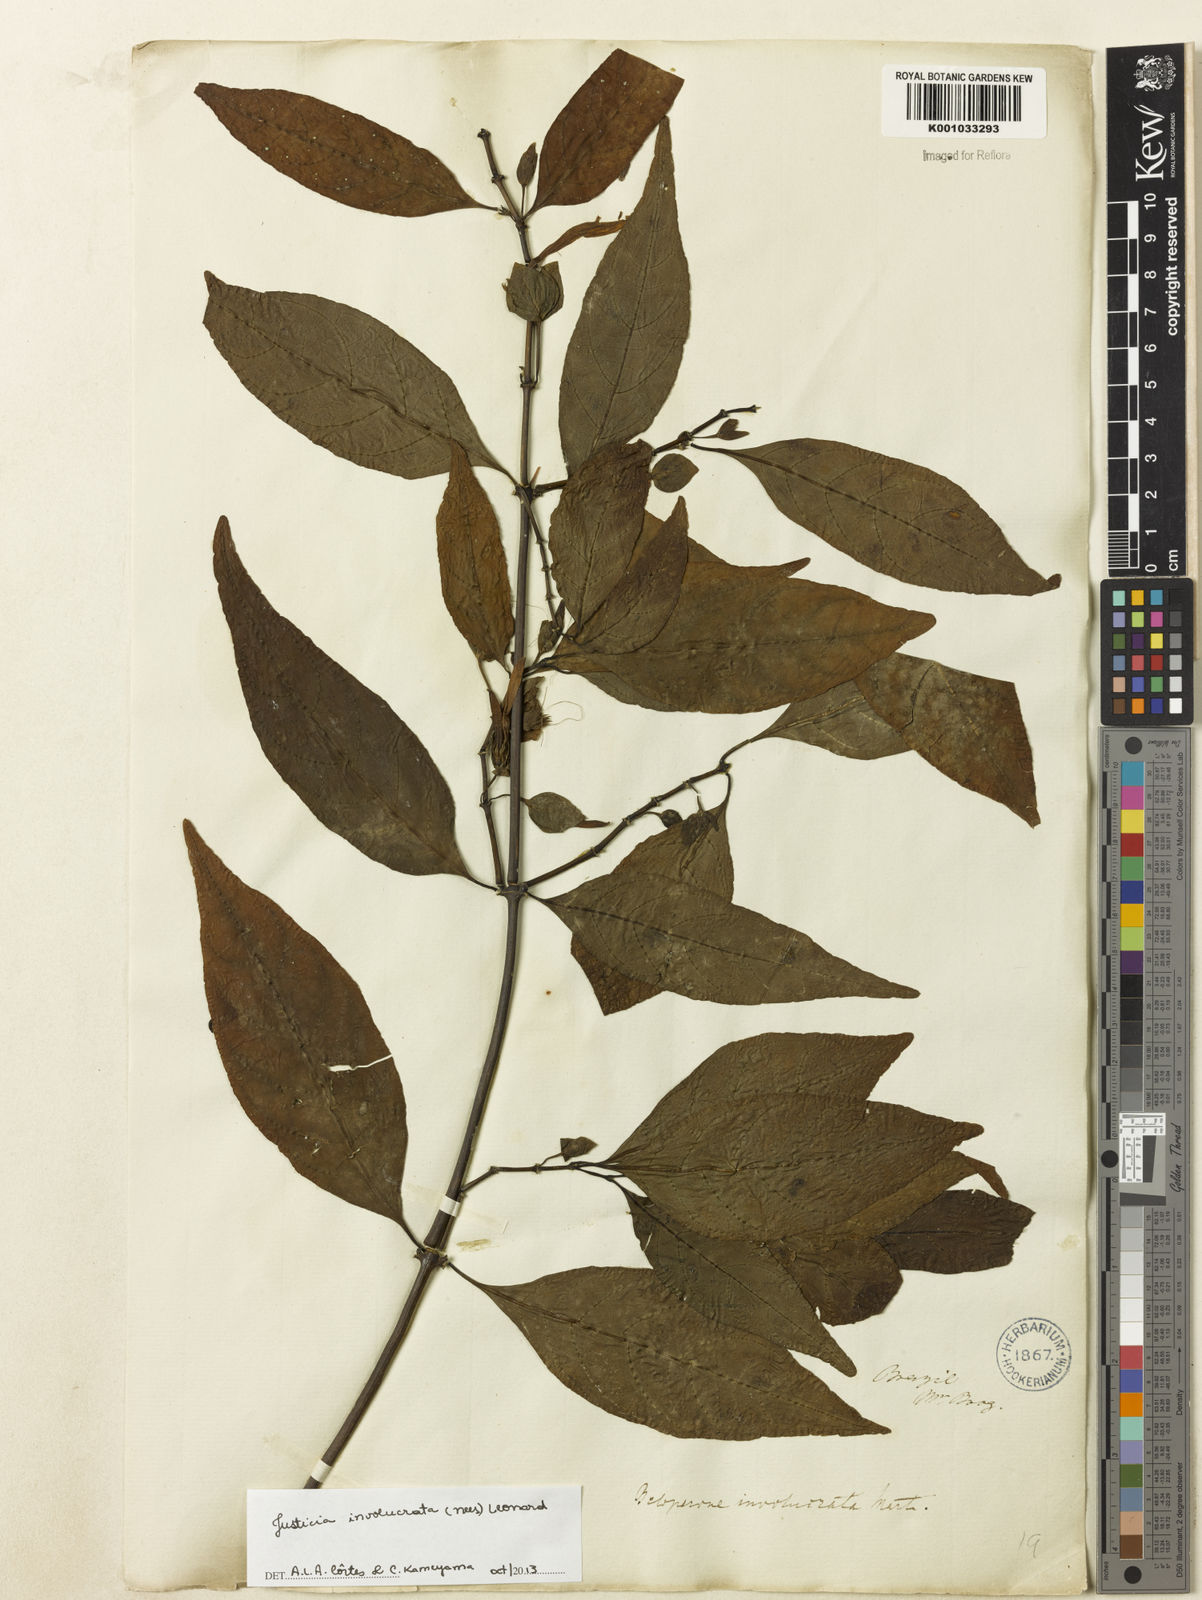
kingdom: Plantae
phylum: Tracheophyta
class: Magnoliopsida
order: Lamiales
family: Acanthaceae
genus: Justicia
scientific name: Justicia involucrata
